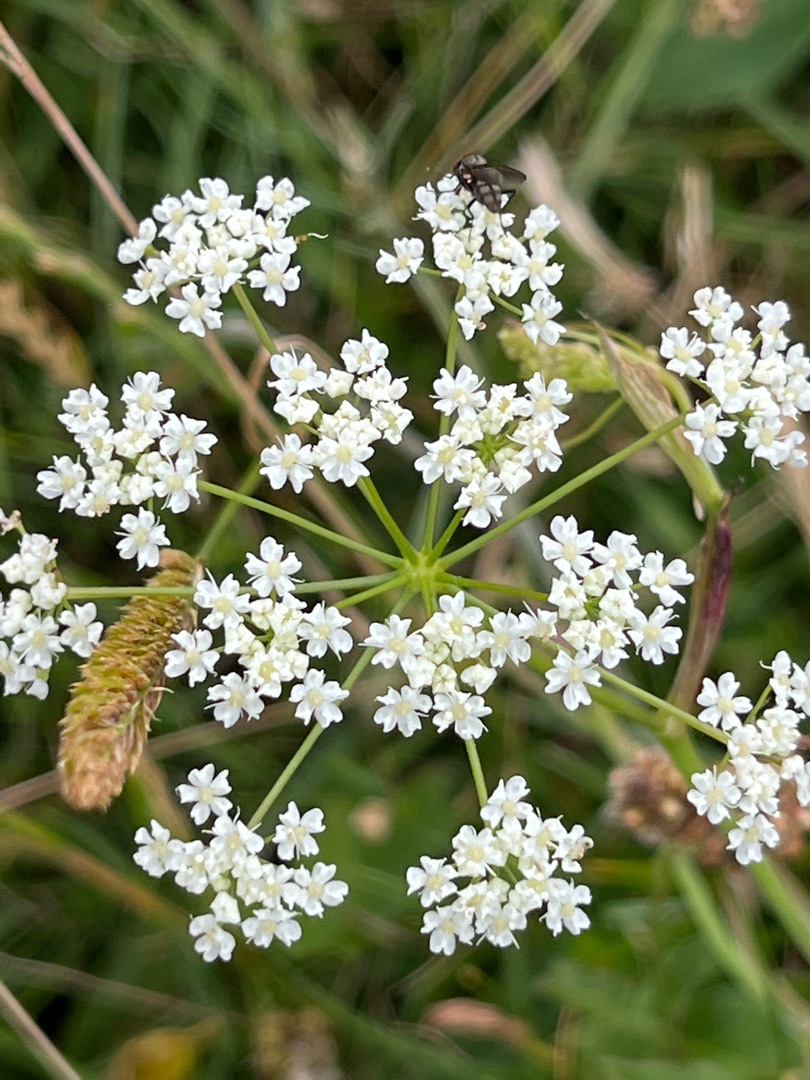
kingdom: Plantae
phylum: Tracheophyta
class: Magnoliopsida
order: Apiales
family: Apiaceae
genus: Pimpinella
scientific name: Pimpinella saxifraga
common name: Almindelig pimpinelle
